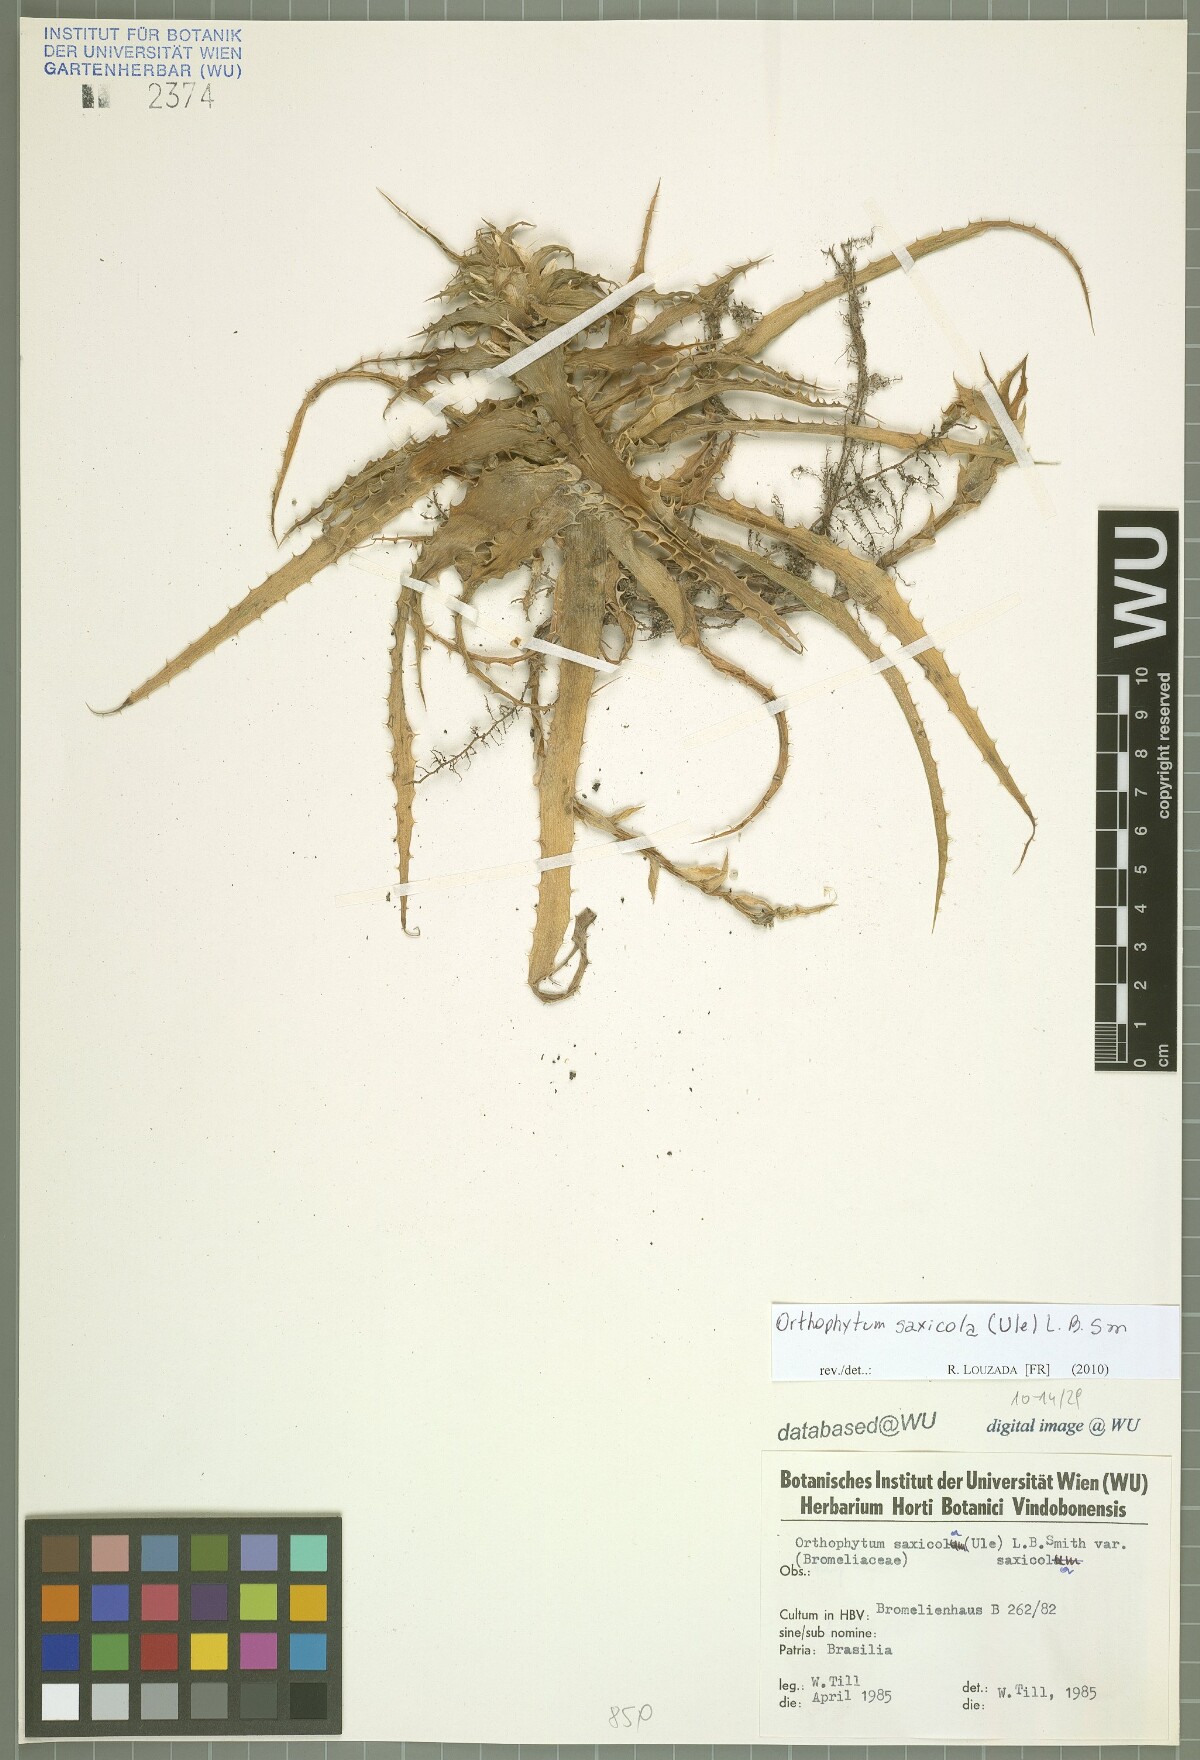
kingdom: Plantae
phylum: Tracheophyta
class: Liliopsida
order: Poales
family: Bromeliaceae
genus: Orthophytum
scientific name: Orthophytum saxicola
